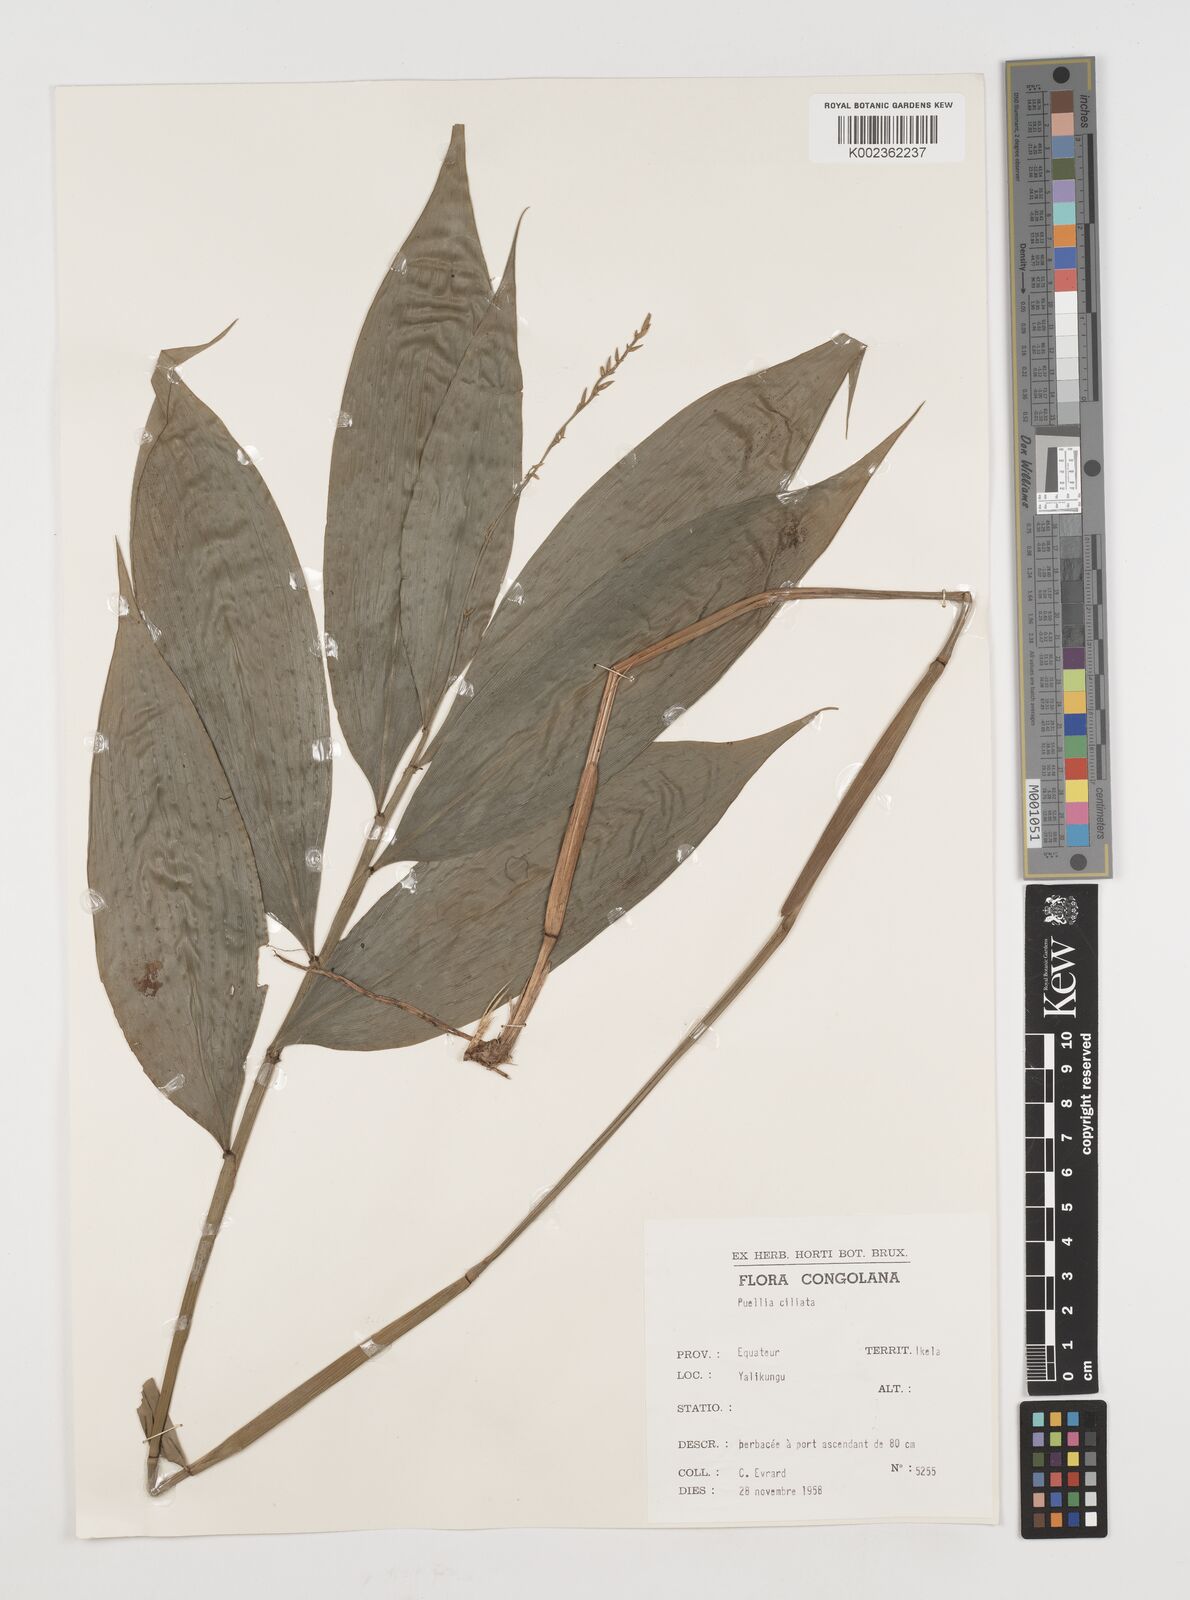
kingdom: Plantae
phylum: Tracheophyta
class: Liliopsida
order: Poales
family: Poaceae
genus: Puelia
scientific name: Puelia coriacea
